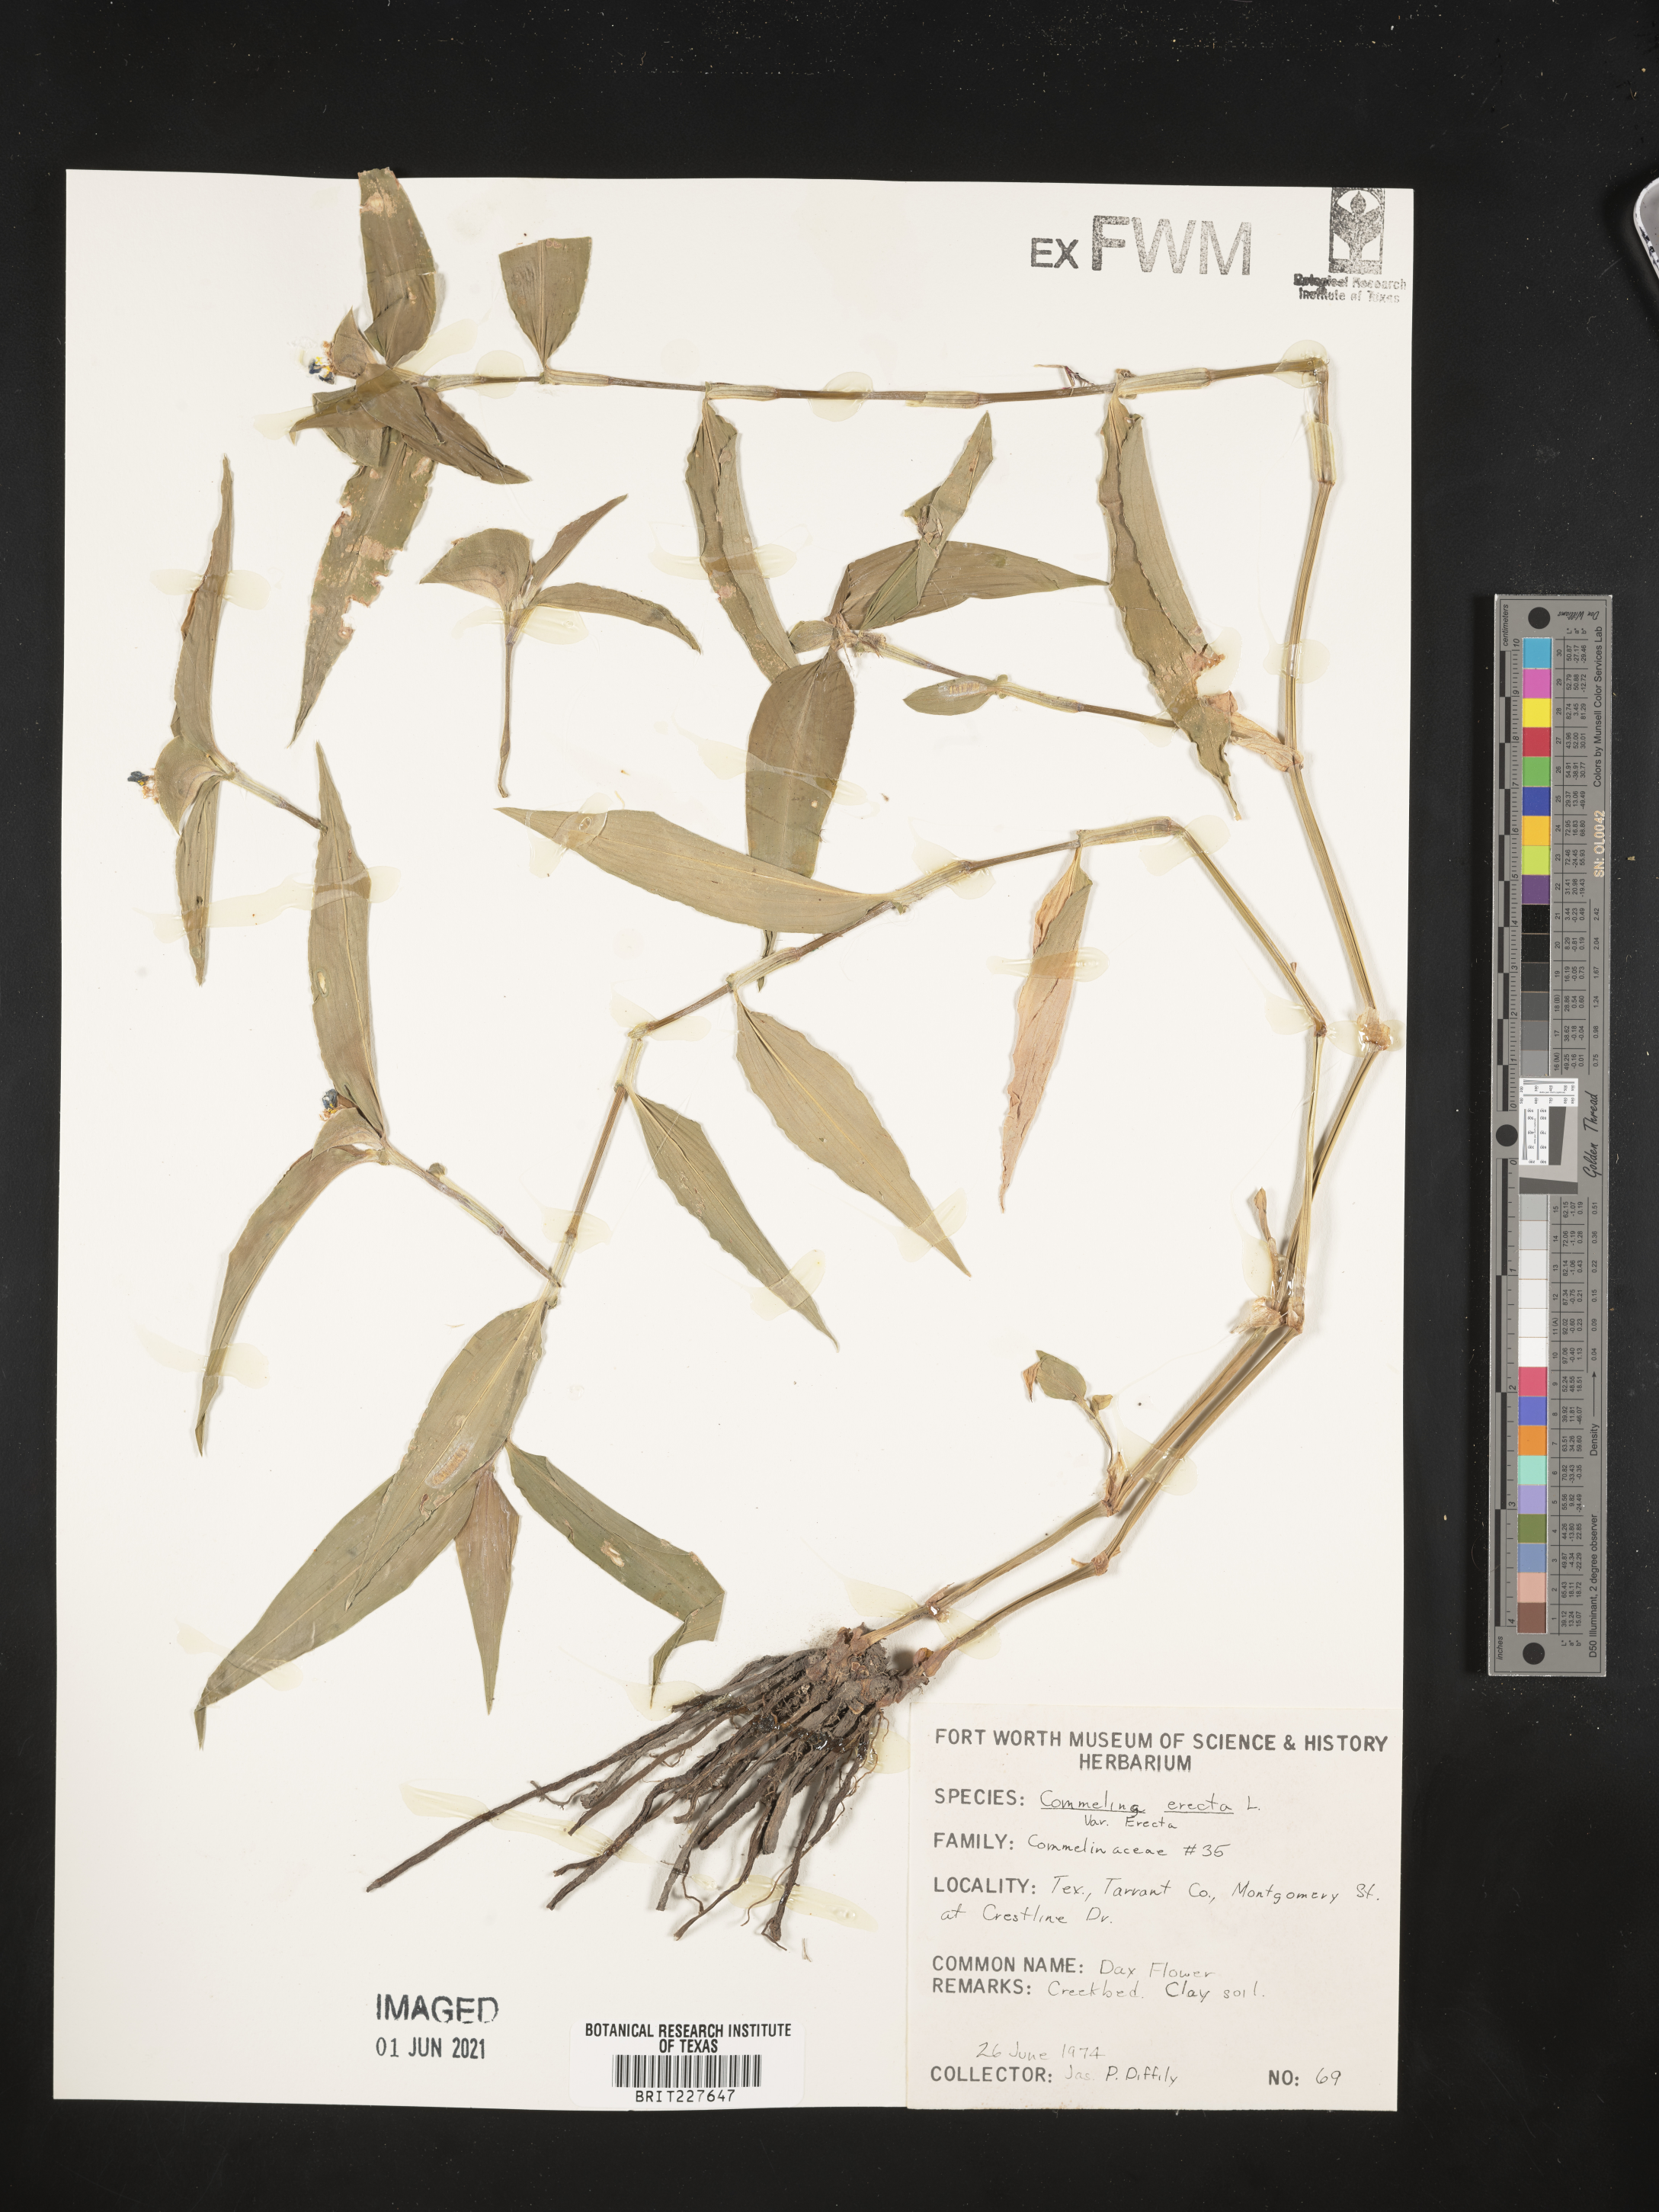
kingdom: Plantae
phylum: Tracheophyta
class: Liliopsida
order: Commelinales
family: Commelinaceae
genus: Commelina
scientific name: Commelina erecta
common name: Blousel blommetjie
